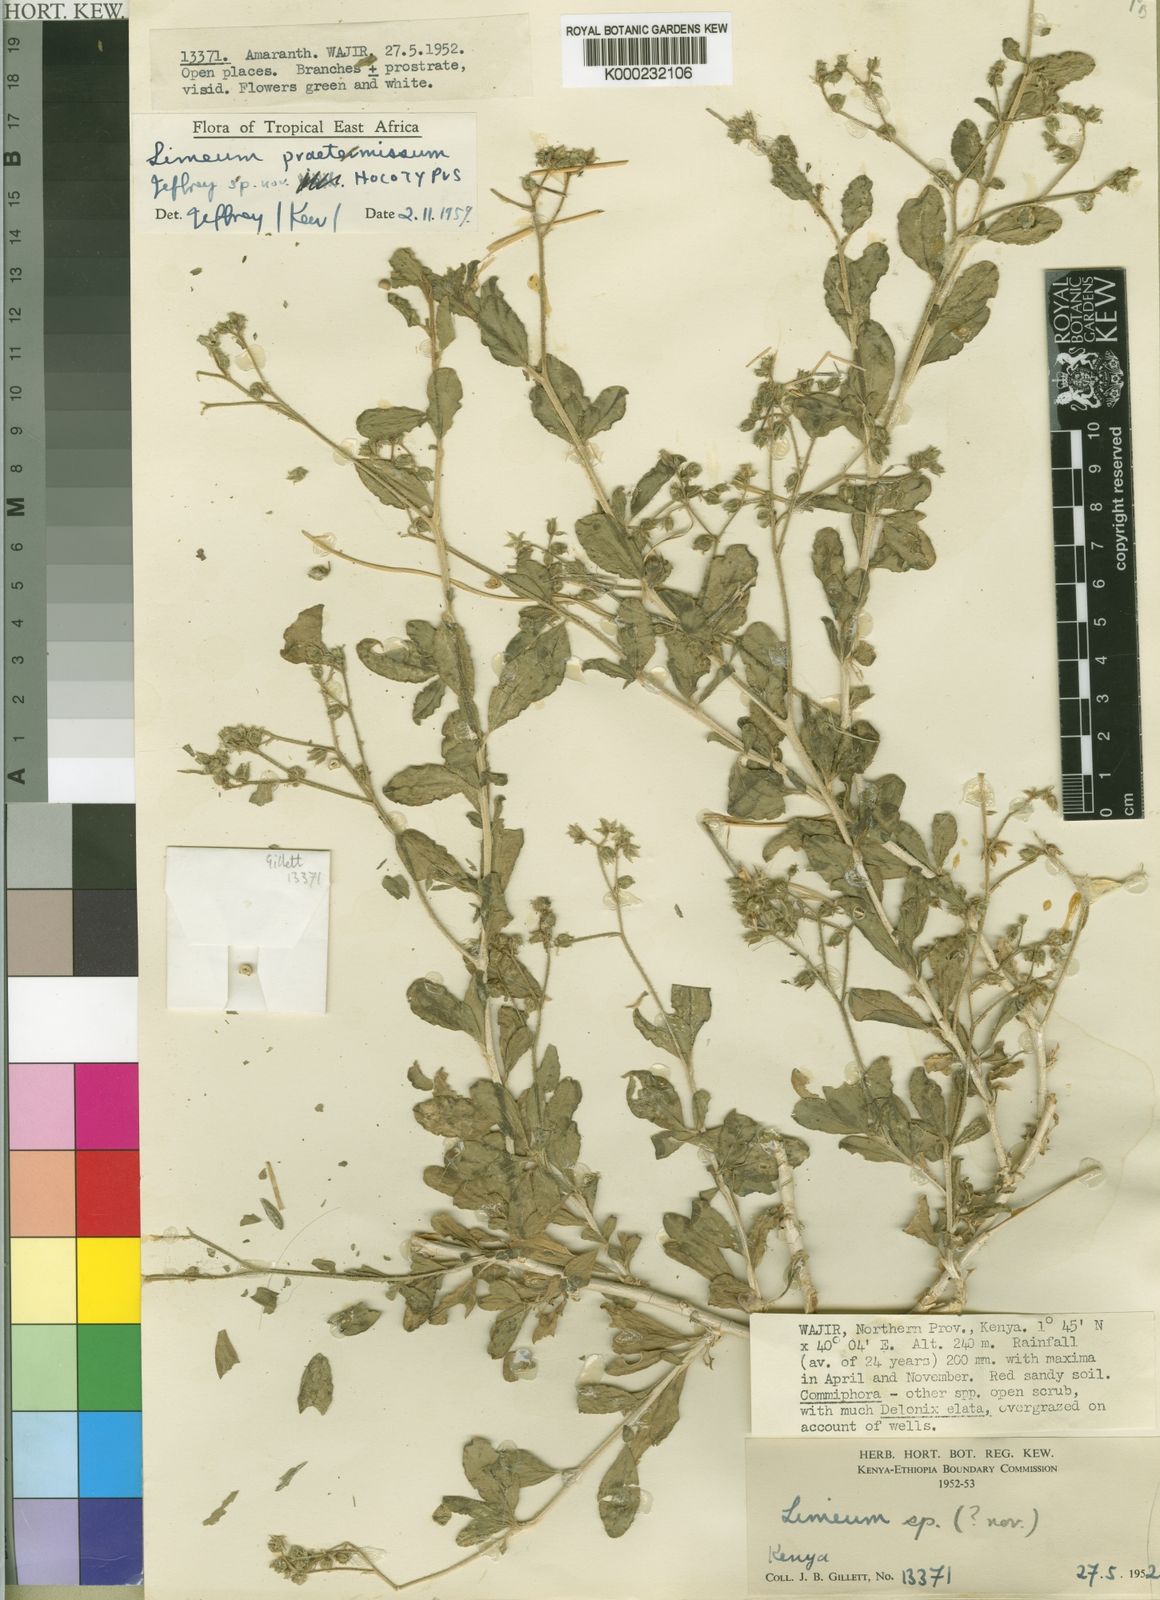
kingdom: Plantae
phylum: Tracheophyta
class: Magnoliopsida
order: Caryophyllales
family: Limeaceae
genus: Limeum
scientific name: Limeum praetermissum
